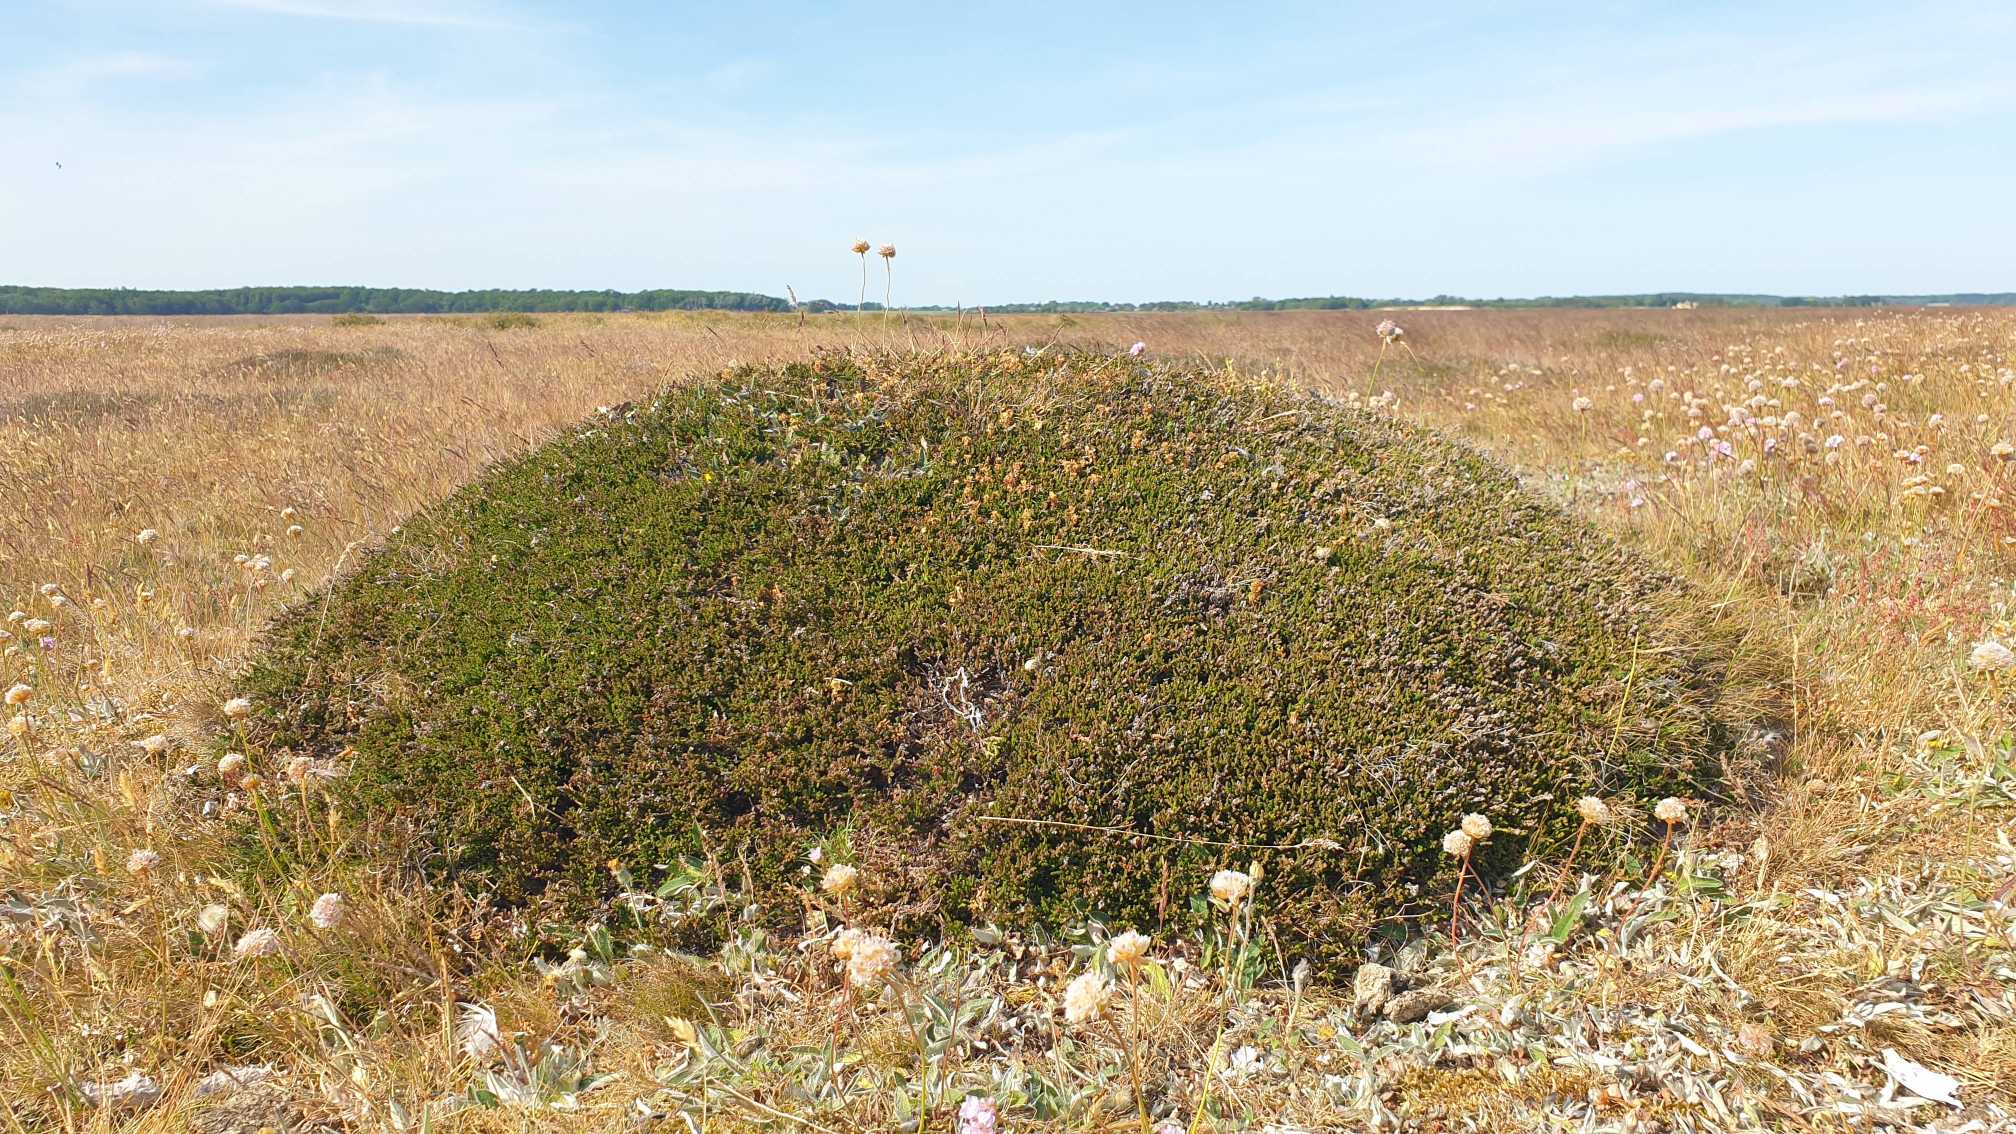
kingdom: Plantae
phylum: Tracheophyta
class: Magnoliopsida
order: Ericales
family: Ericaceae
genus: Calluna
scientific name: Calluna vulgaris
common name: Hedelyng
